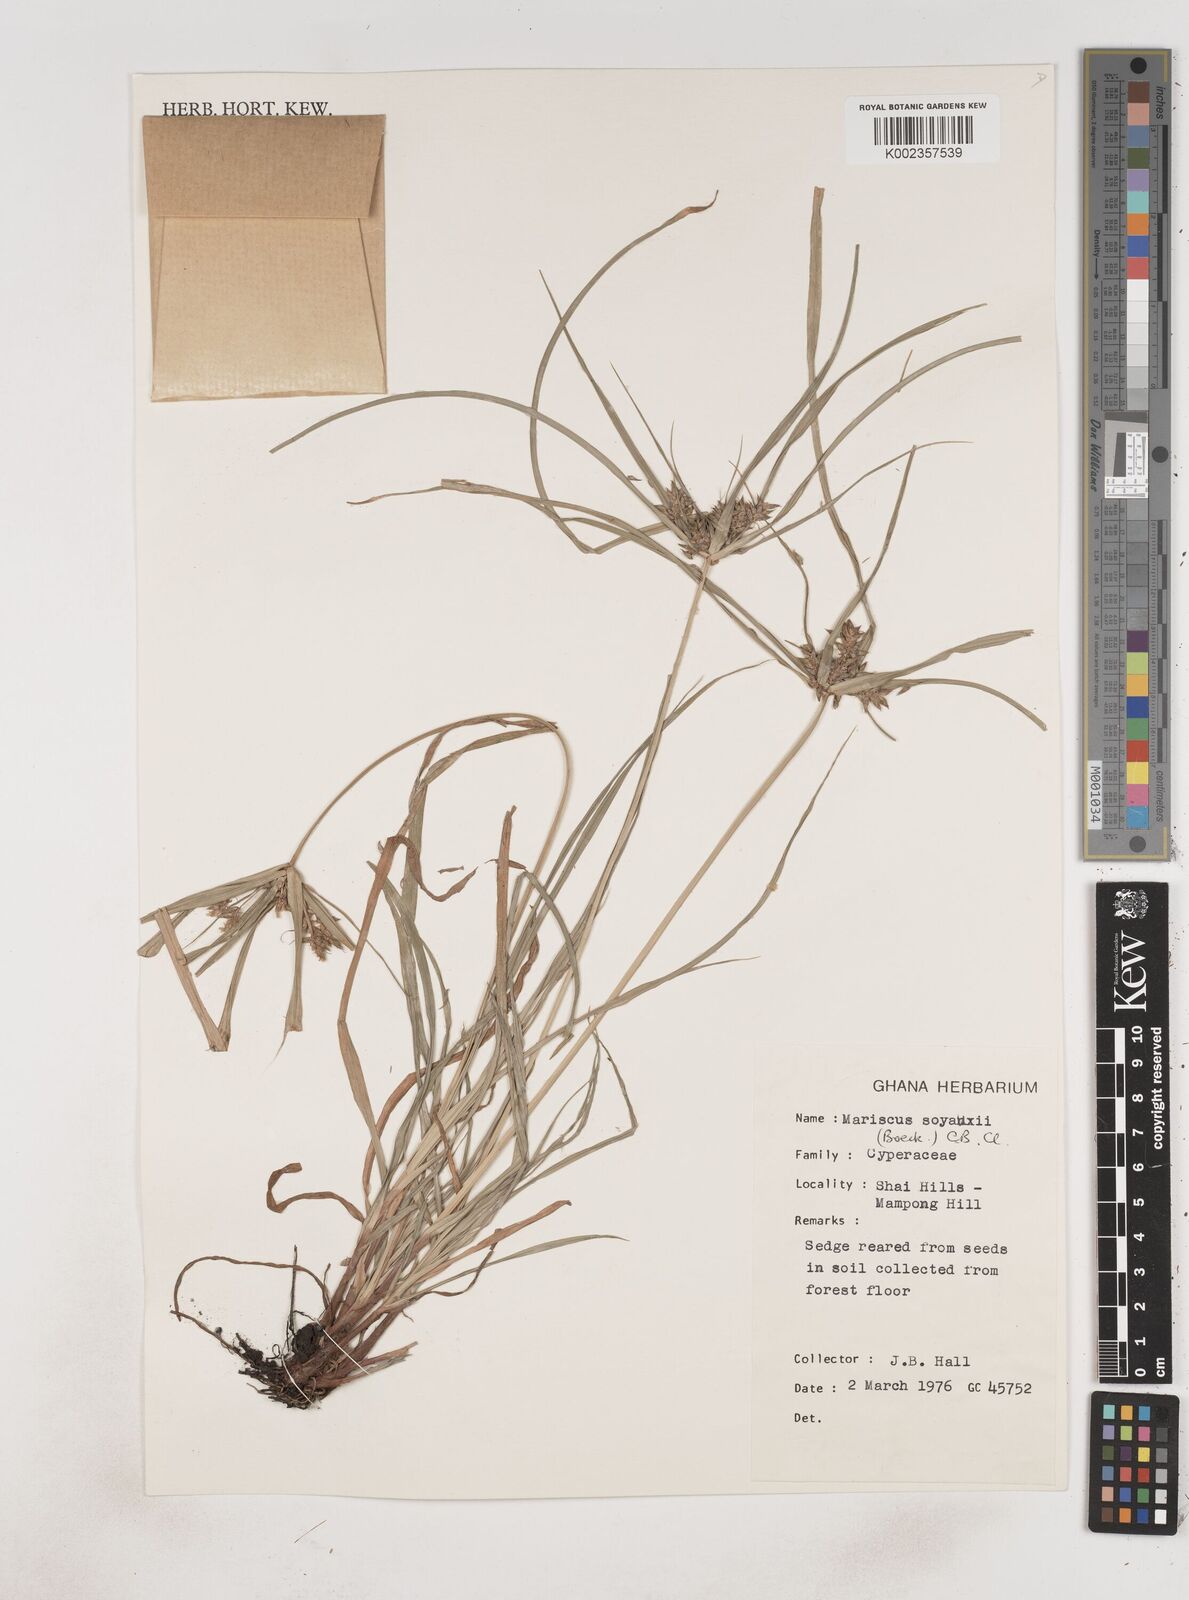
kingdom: Plantae
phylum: Tracheophyta
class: Liliopsida
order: Poales
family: Cyperaceae
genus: Cyperus
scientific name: Cyperus soyauxii
